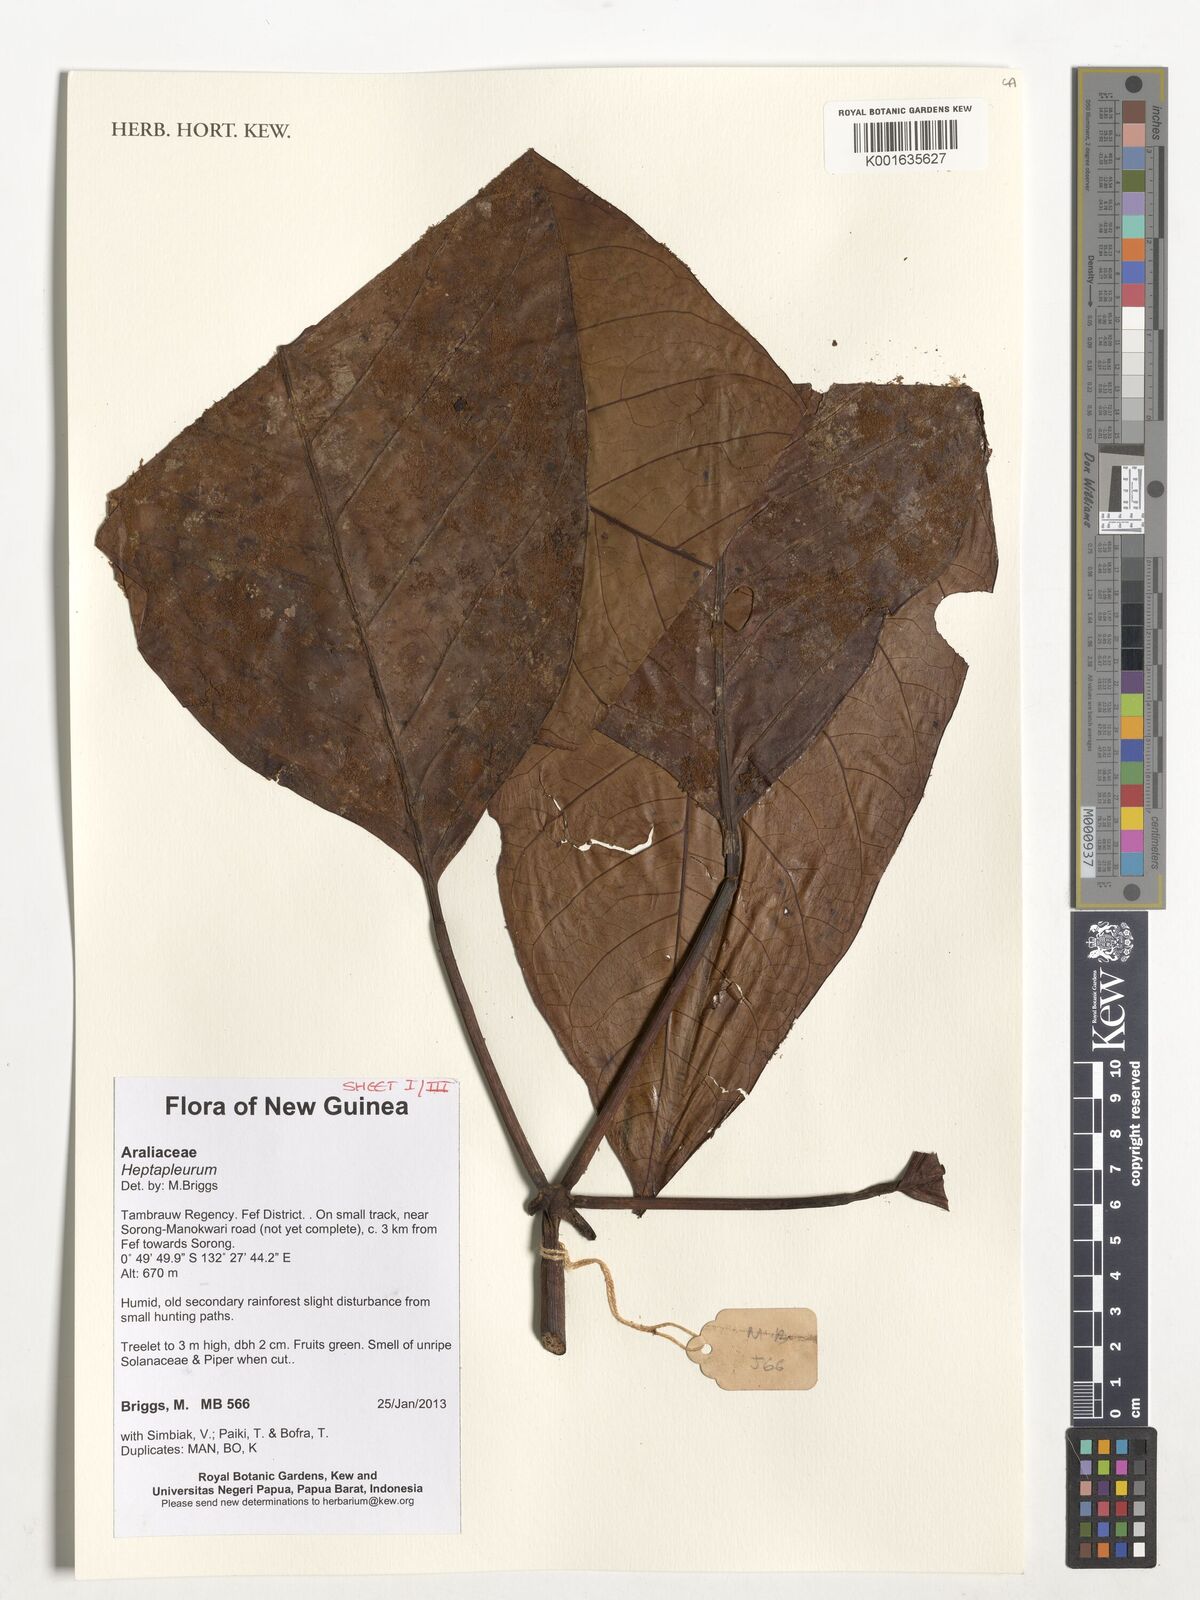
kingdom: Plantae
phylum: Tracheophyta
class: Magnoliopsida
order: Apiales
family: Araliaceae
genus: Heptapleurum
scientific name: Heptapleurum
